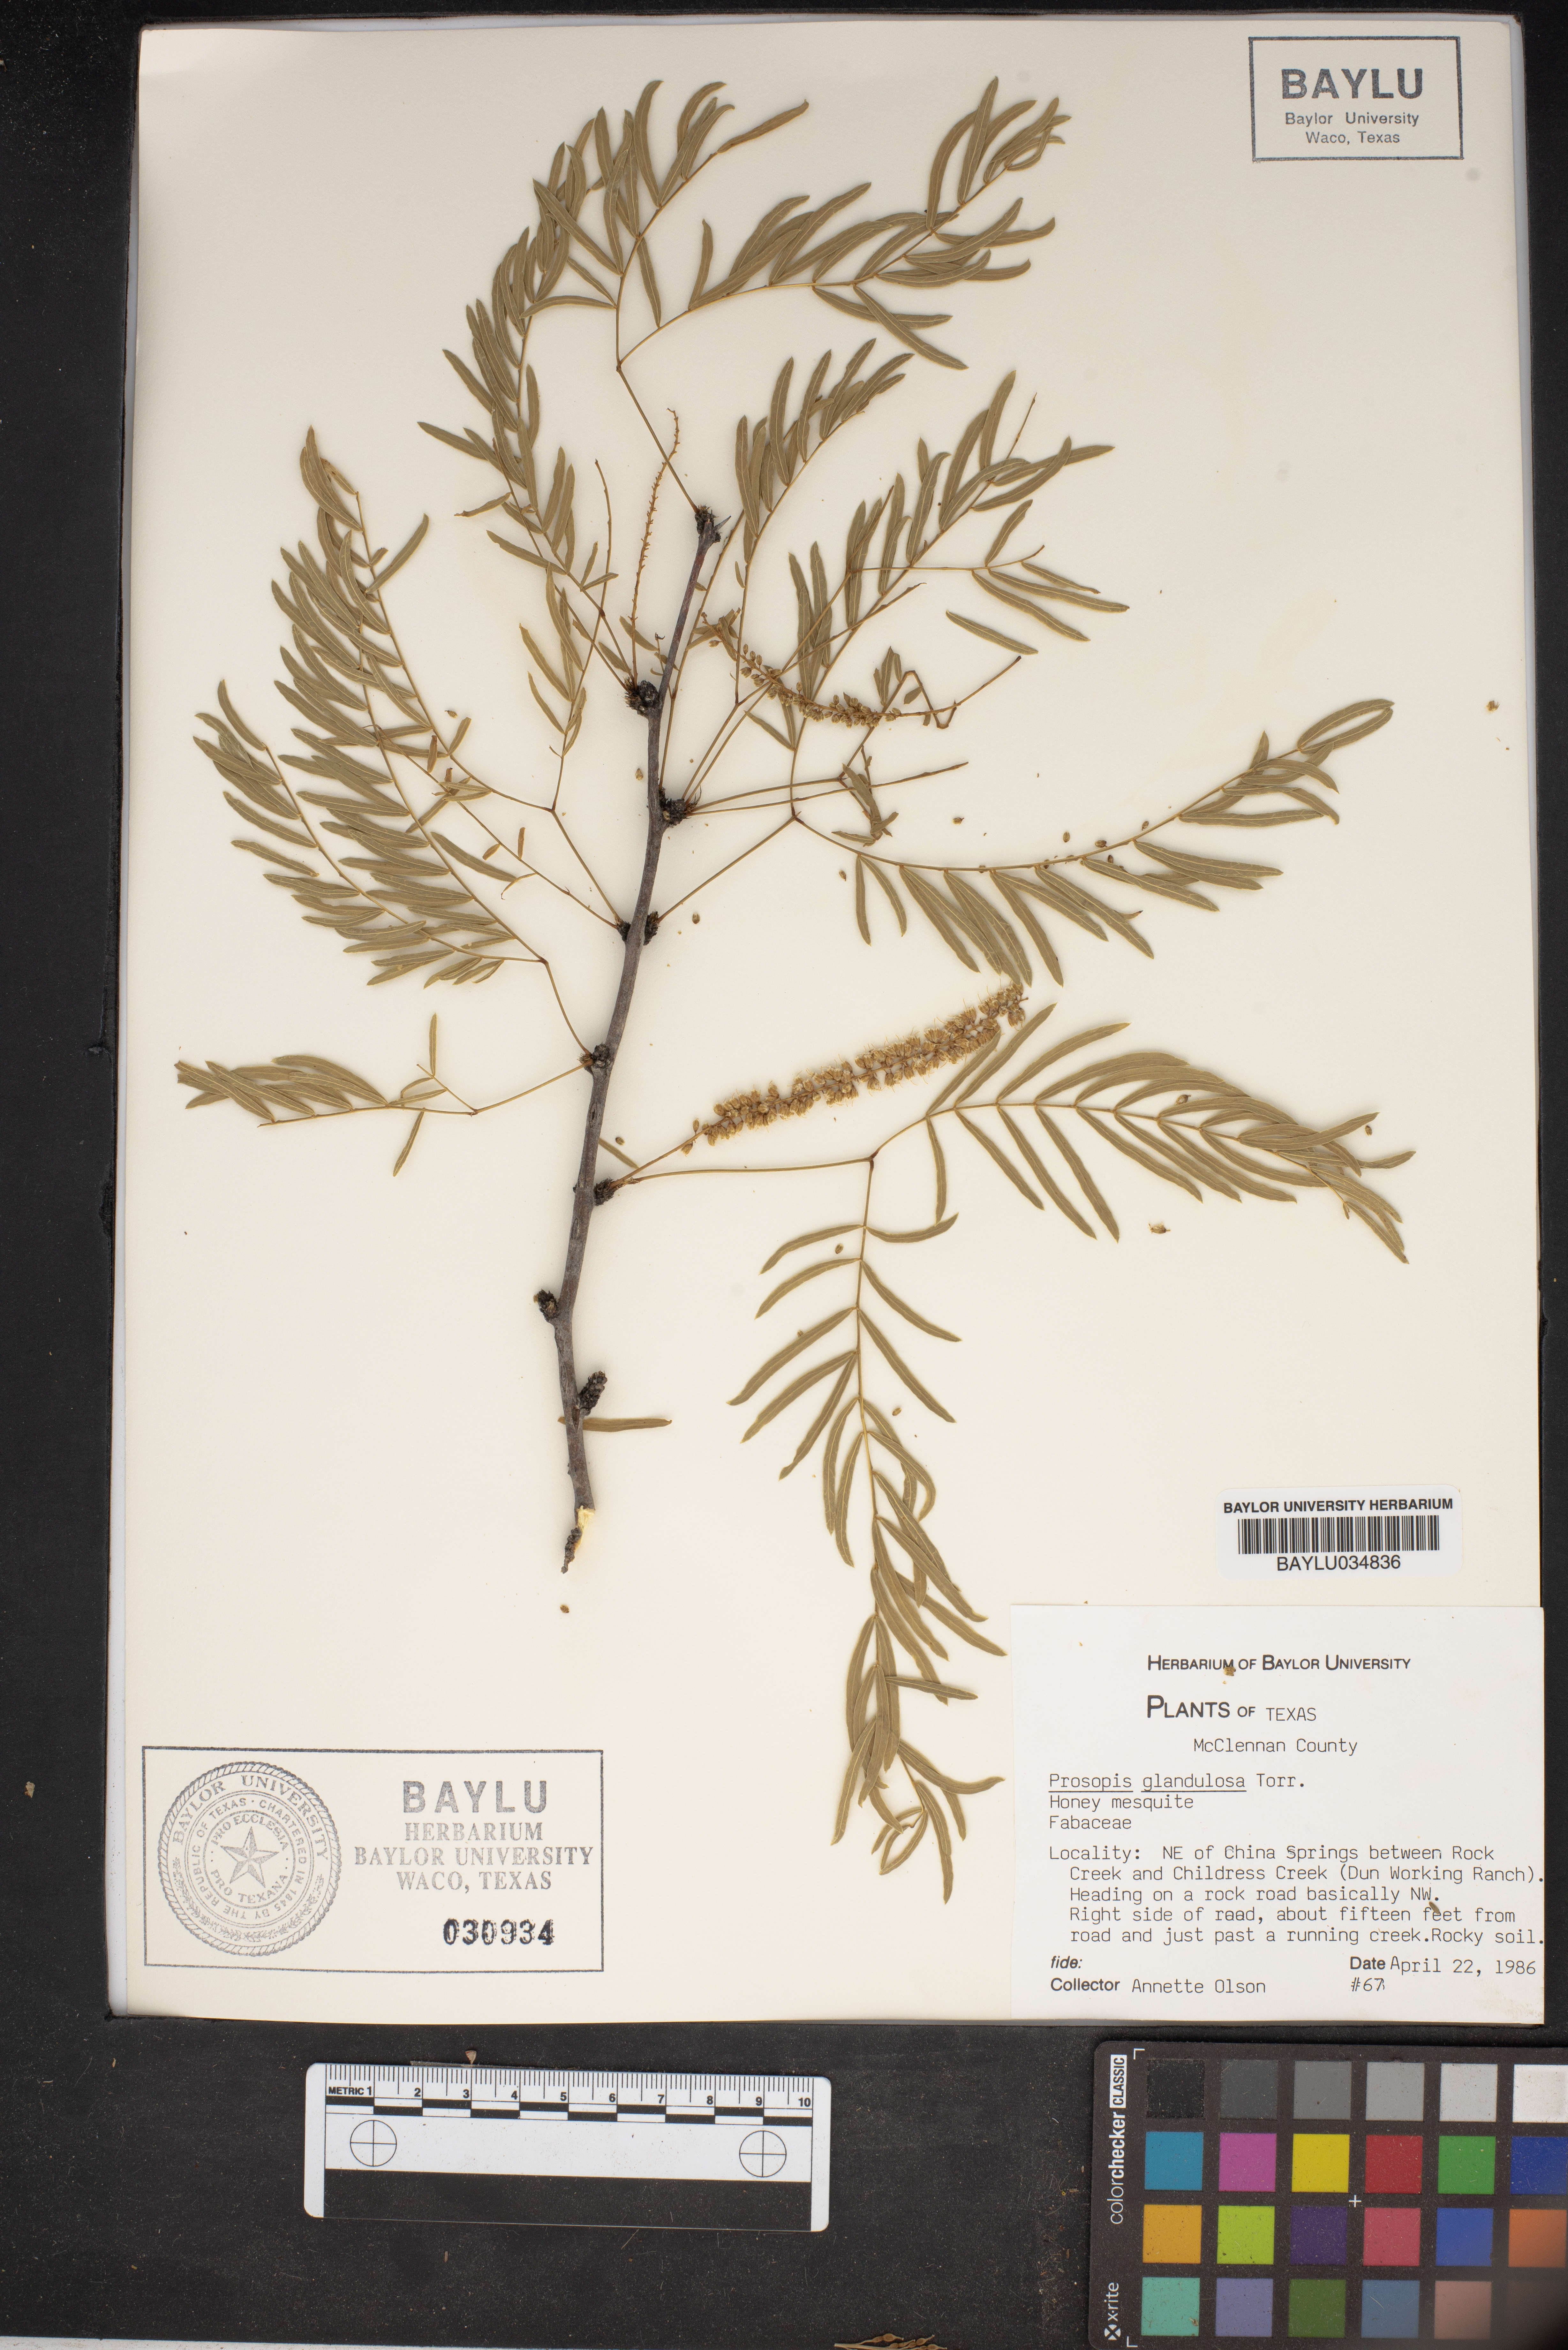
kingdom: Plantae
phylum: Tracheophyta
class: Magnoliopsida
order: Fabales
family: Fabaceae
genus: Prosopis
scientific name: Prosopis glandulosa
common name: Honey mesquite
